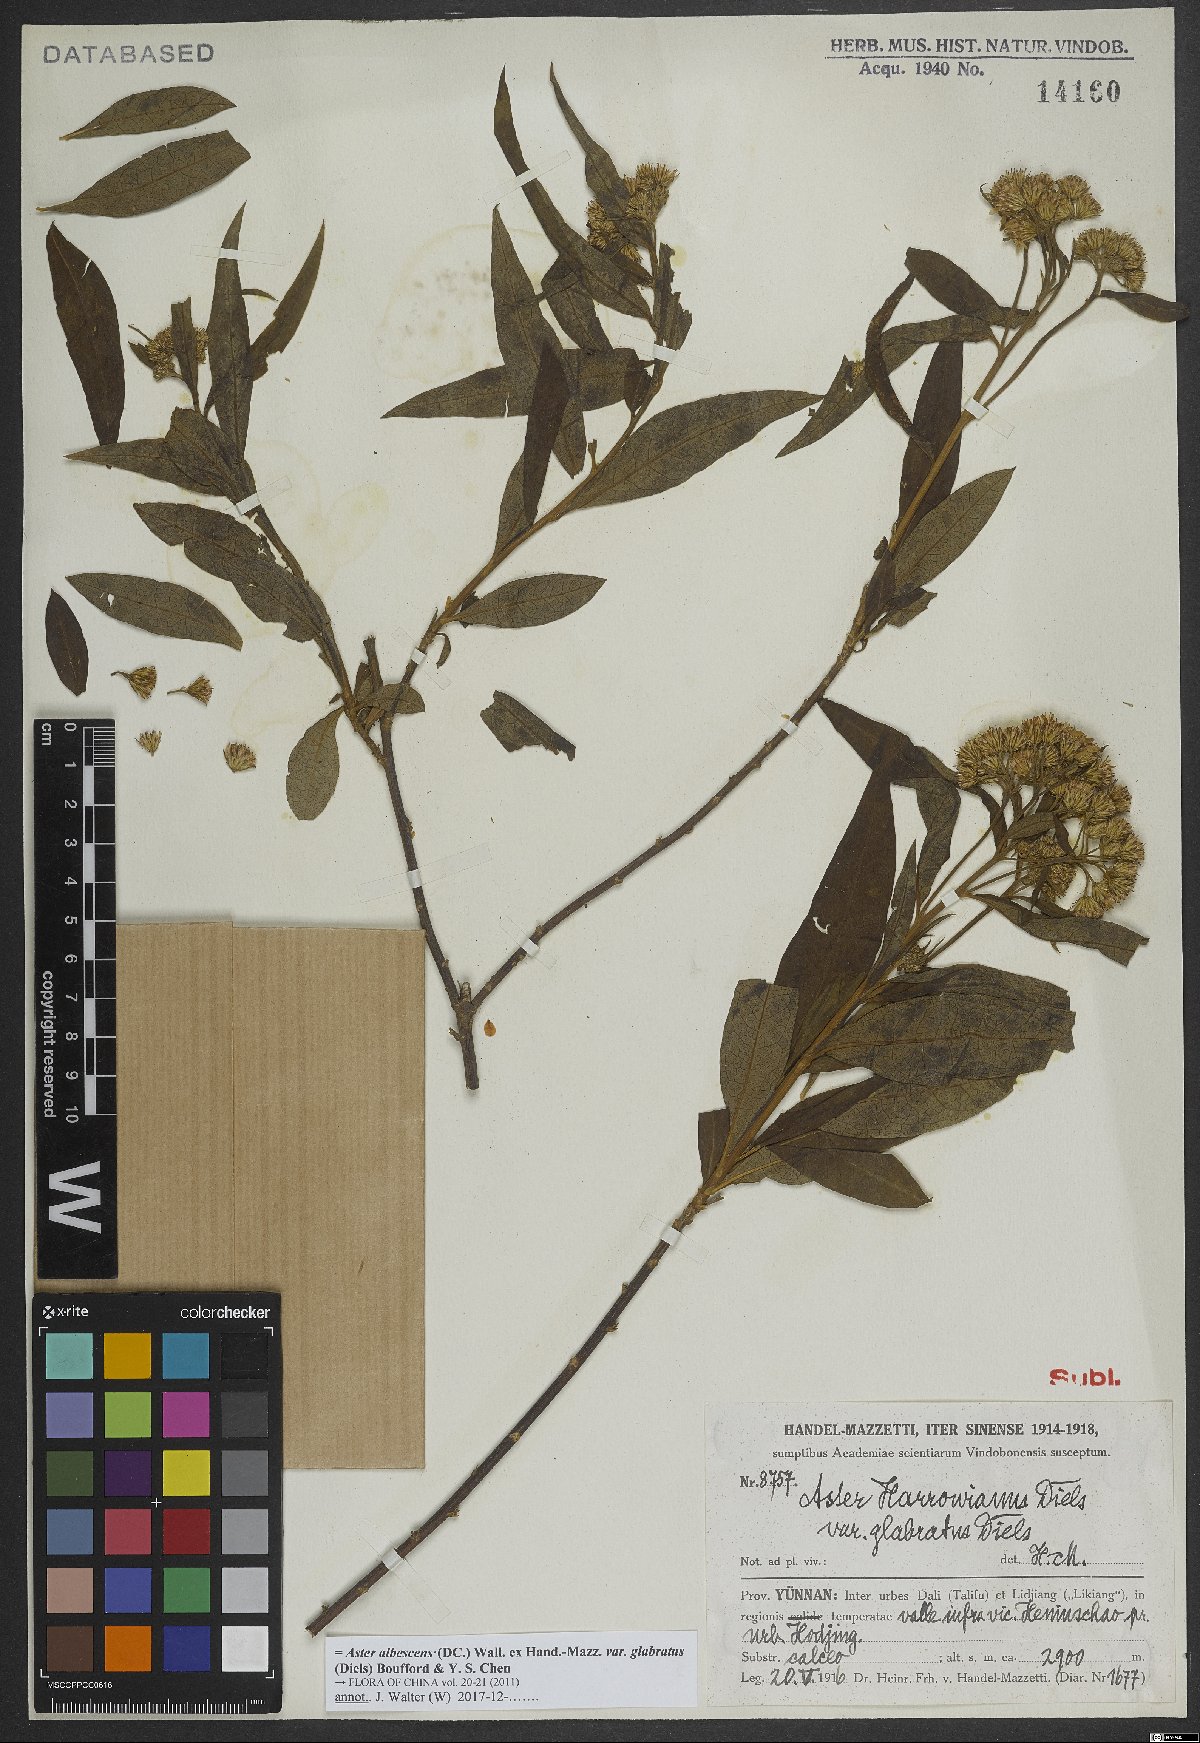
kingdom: Plantae
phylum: Tracheophyta
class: Magnoliopsida
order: Asterales
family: Asteraceae
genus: Sinosidus
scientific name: Sinosidus albescens
